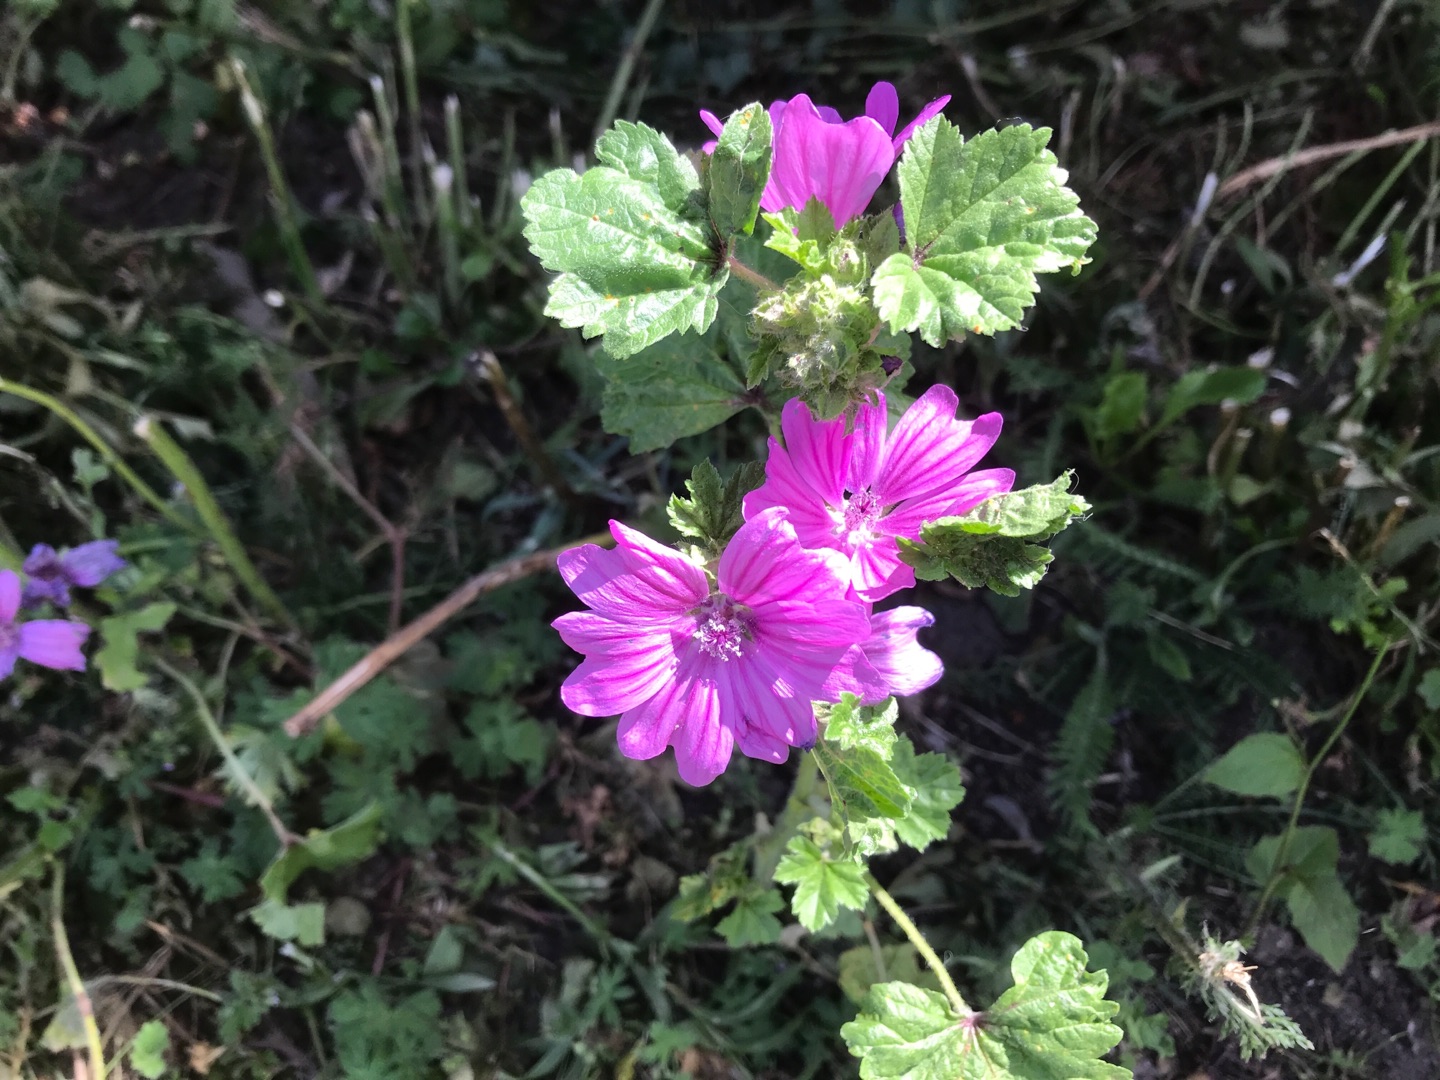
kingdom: Plantae
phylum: Tracheophyta
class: Magnoliopsida
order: Malvales
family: Malvaceae
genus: Malva
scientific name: Malva sylvestris
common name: Almindelig katost
